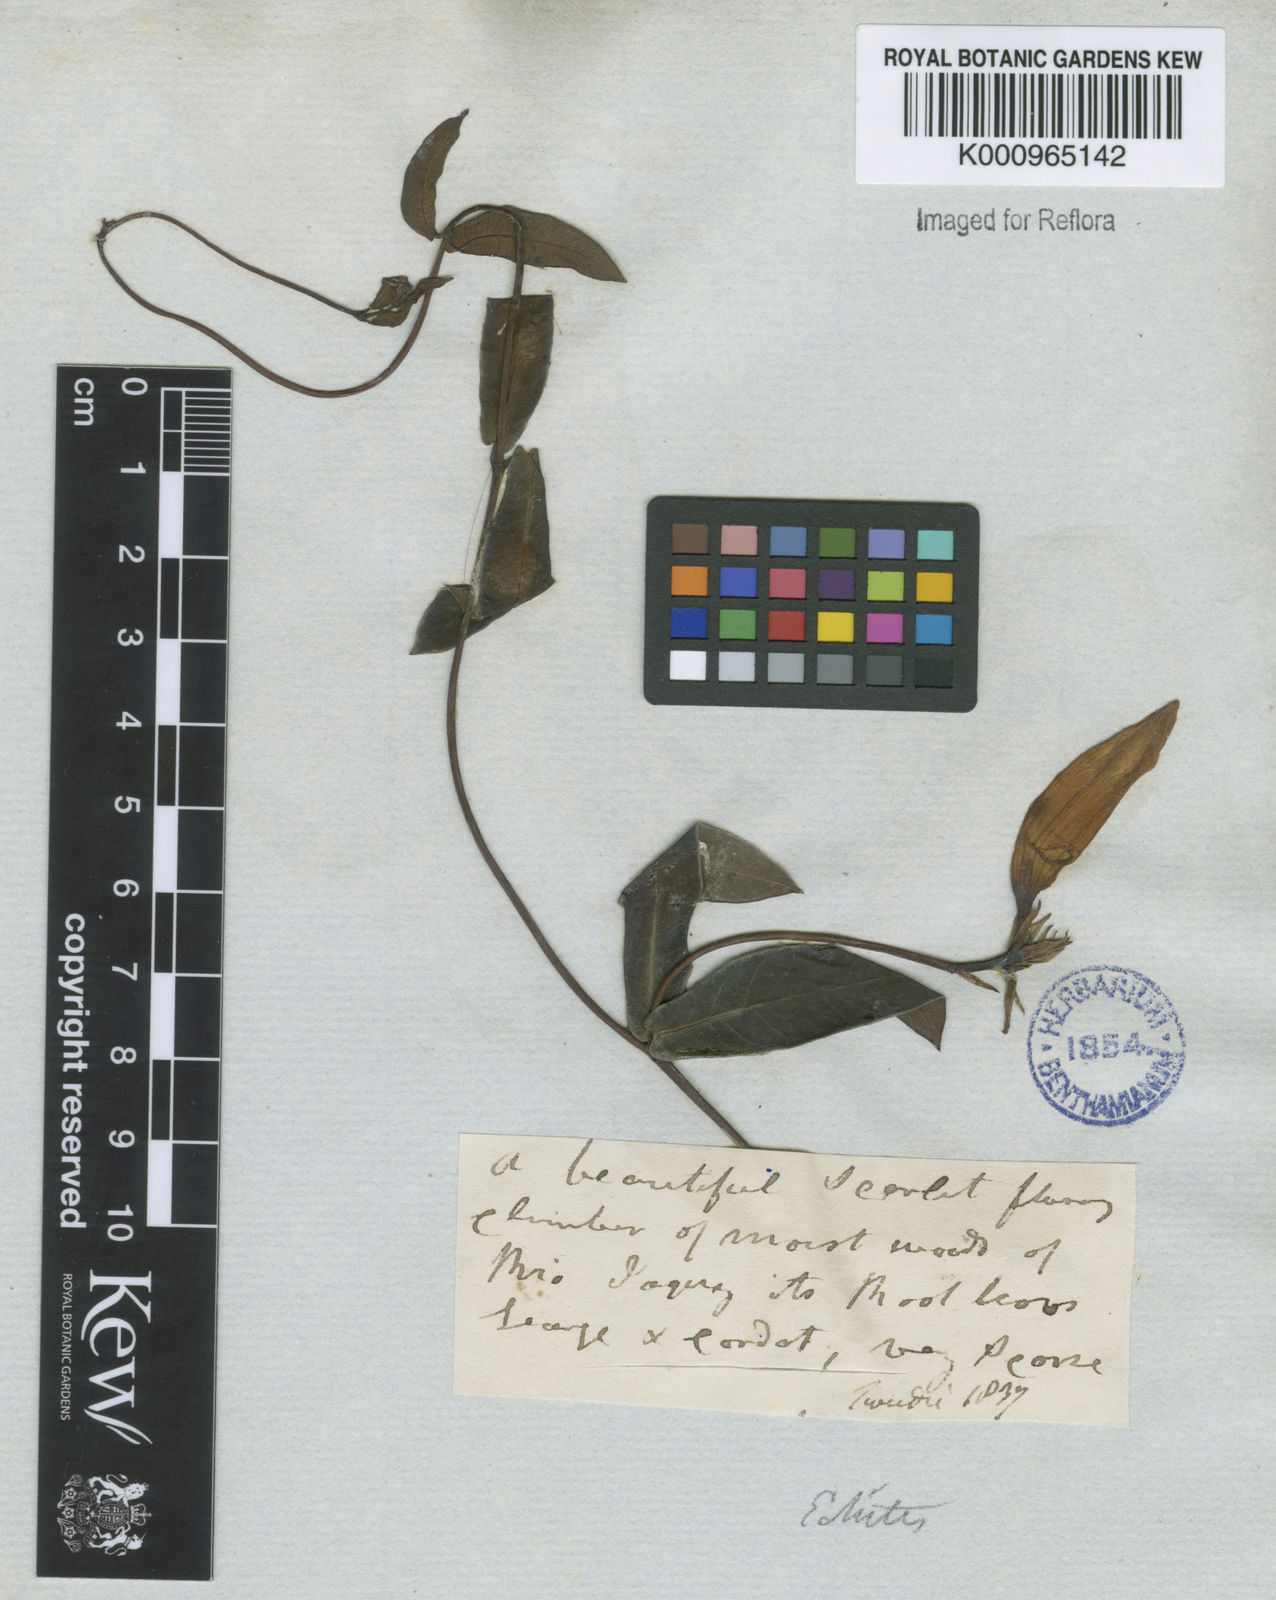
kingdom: Plantae
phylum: Tracheophyta
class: Magnoliopsida
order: Gentianales
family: Apocynaceae
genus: Rhabdadenia
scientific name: Rhabdadenia madida
